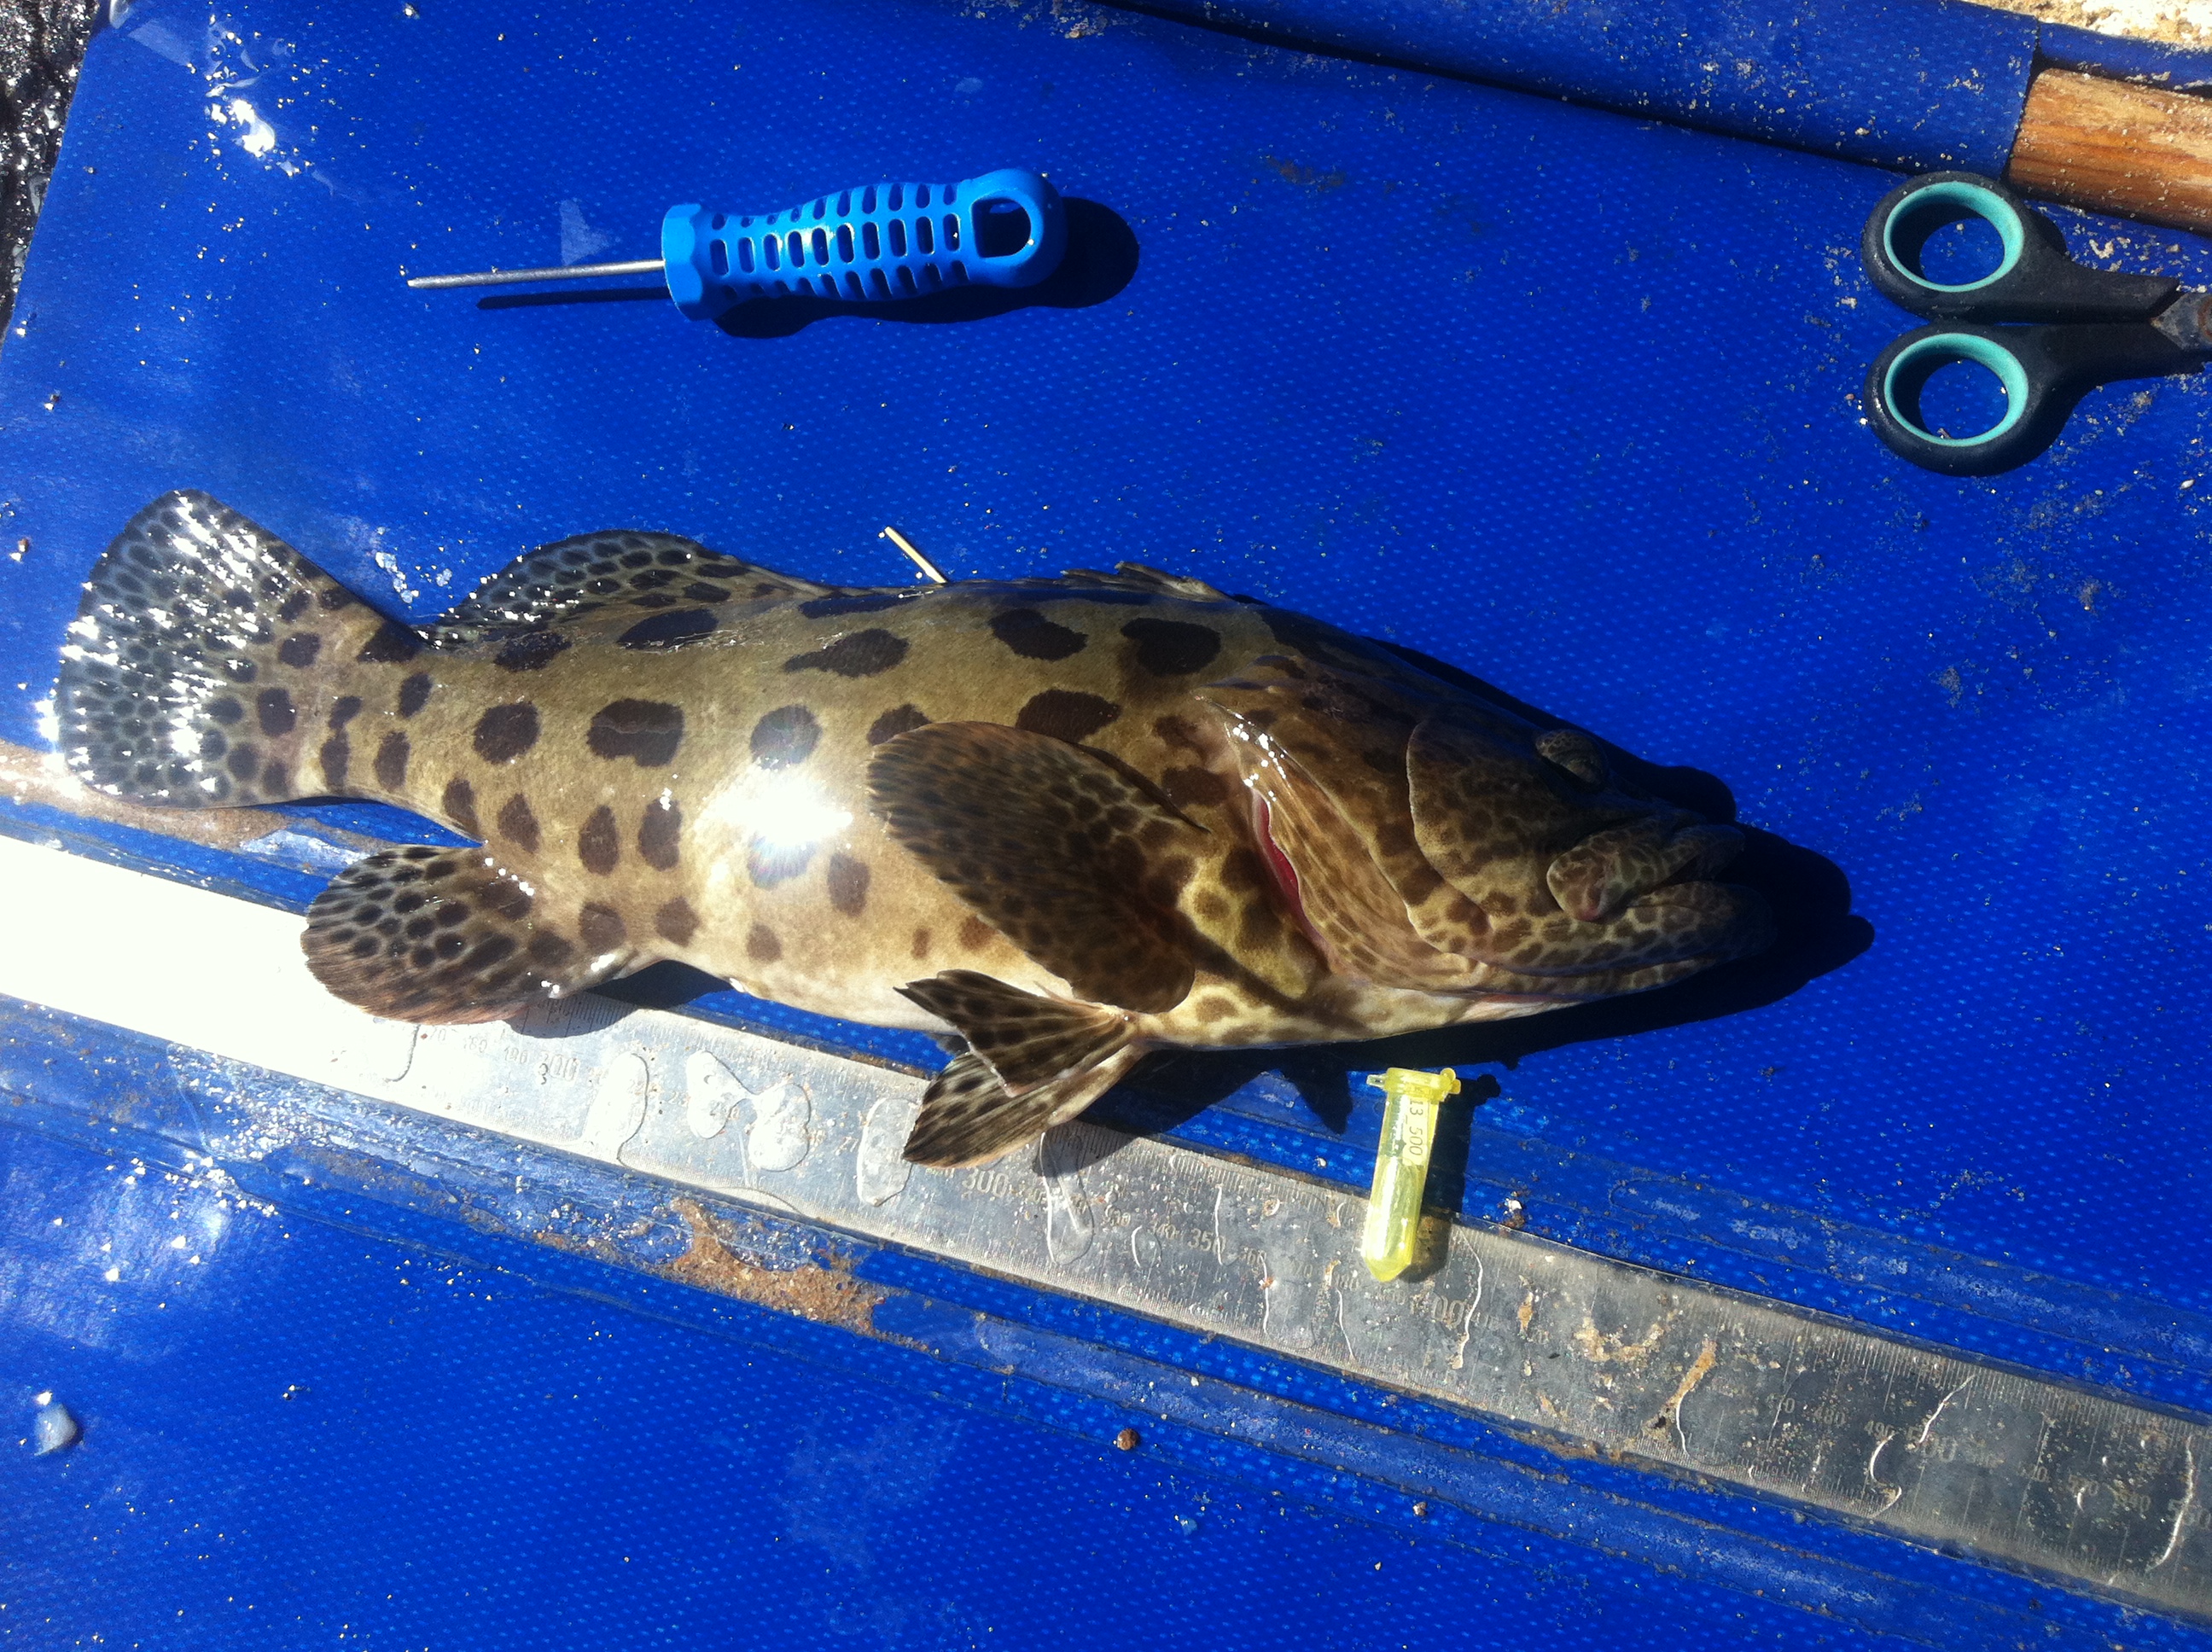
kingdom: Animalia
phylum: Chordata
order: Perciformes
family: Serranidae
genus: Epinephelus
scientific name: Epinephelus tukula
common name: Potato cod
